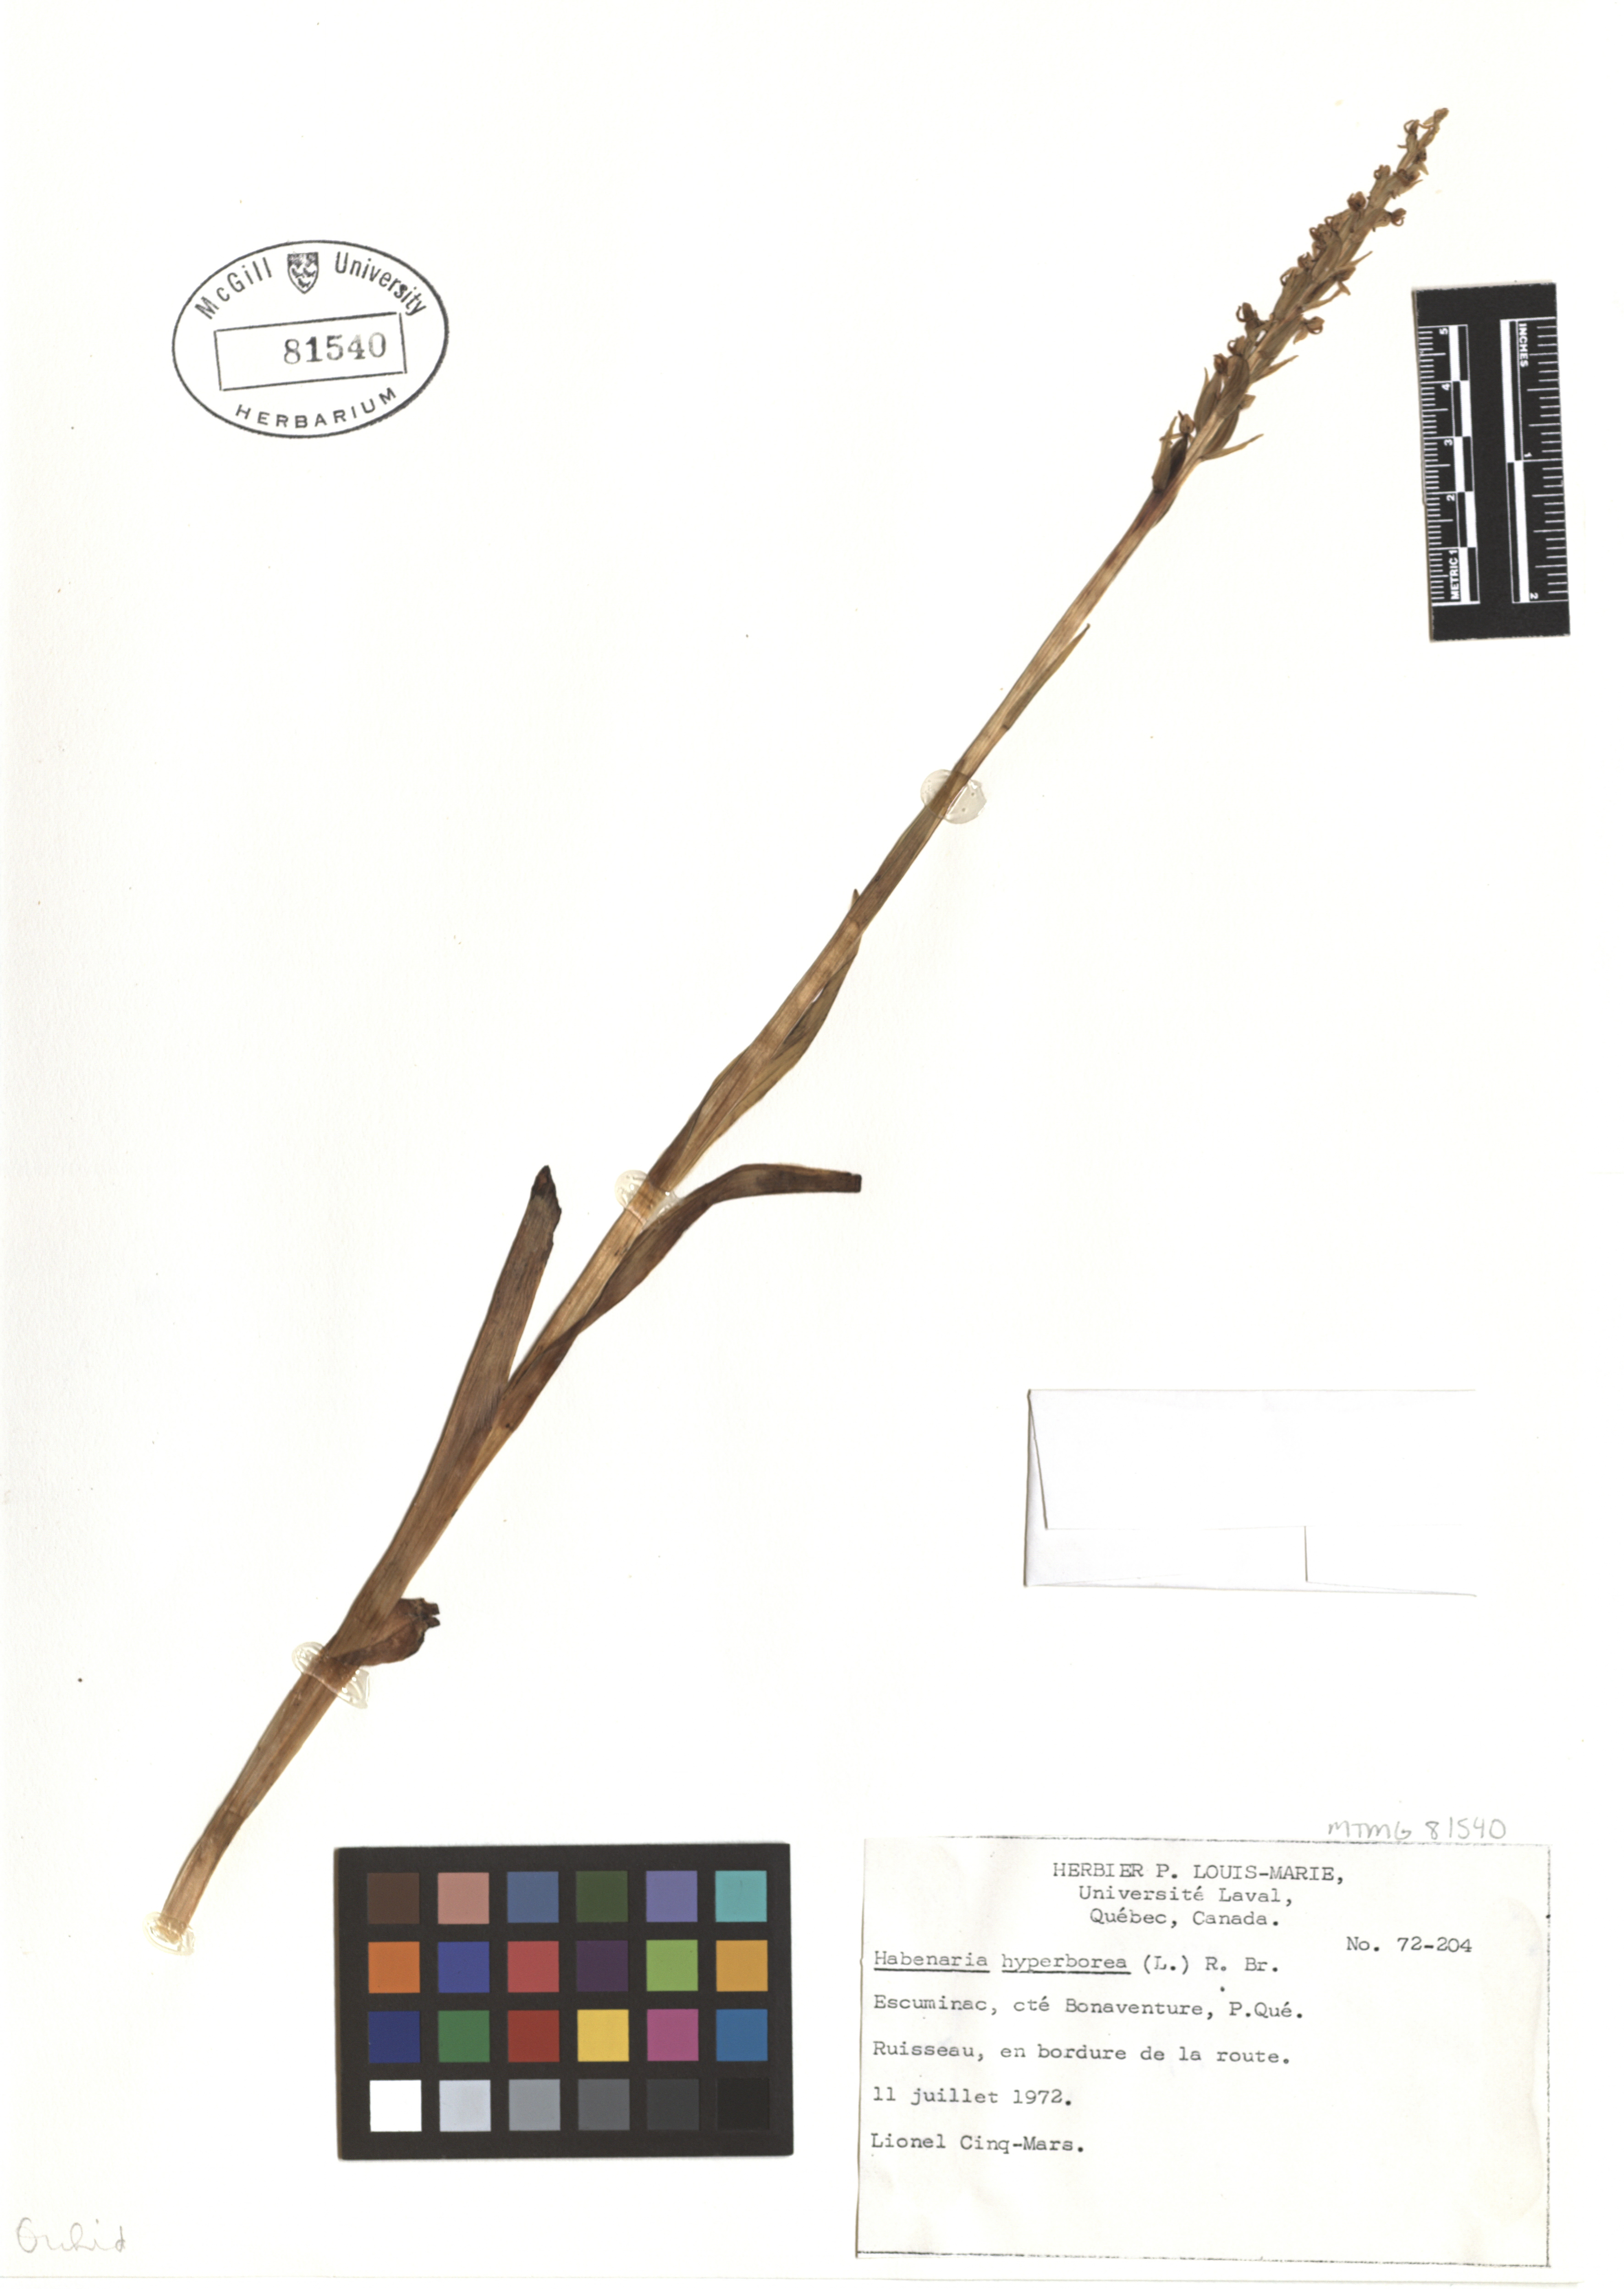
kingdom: Plantae
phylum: Tracheophyta
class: Liliopsida
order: Asparagales
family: Orchidaceae
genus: Platanthera
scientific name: Platanthera hyperborea
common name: Northern green orchid
